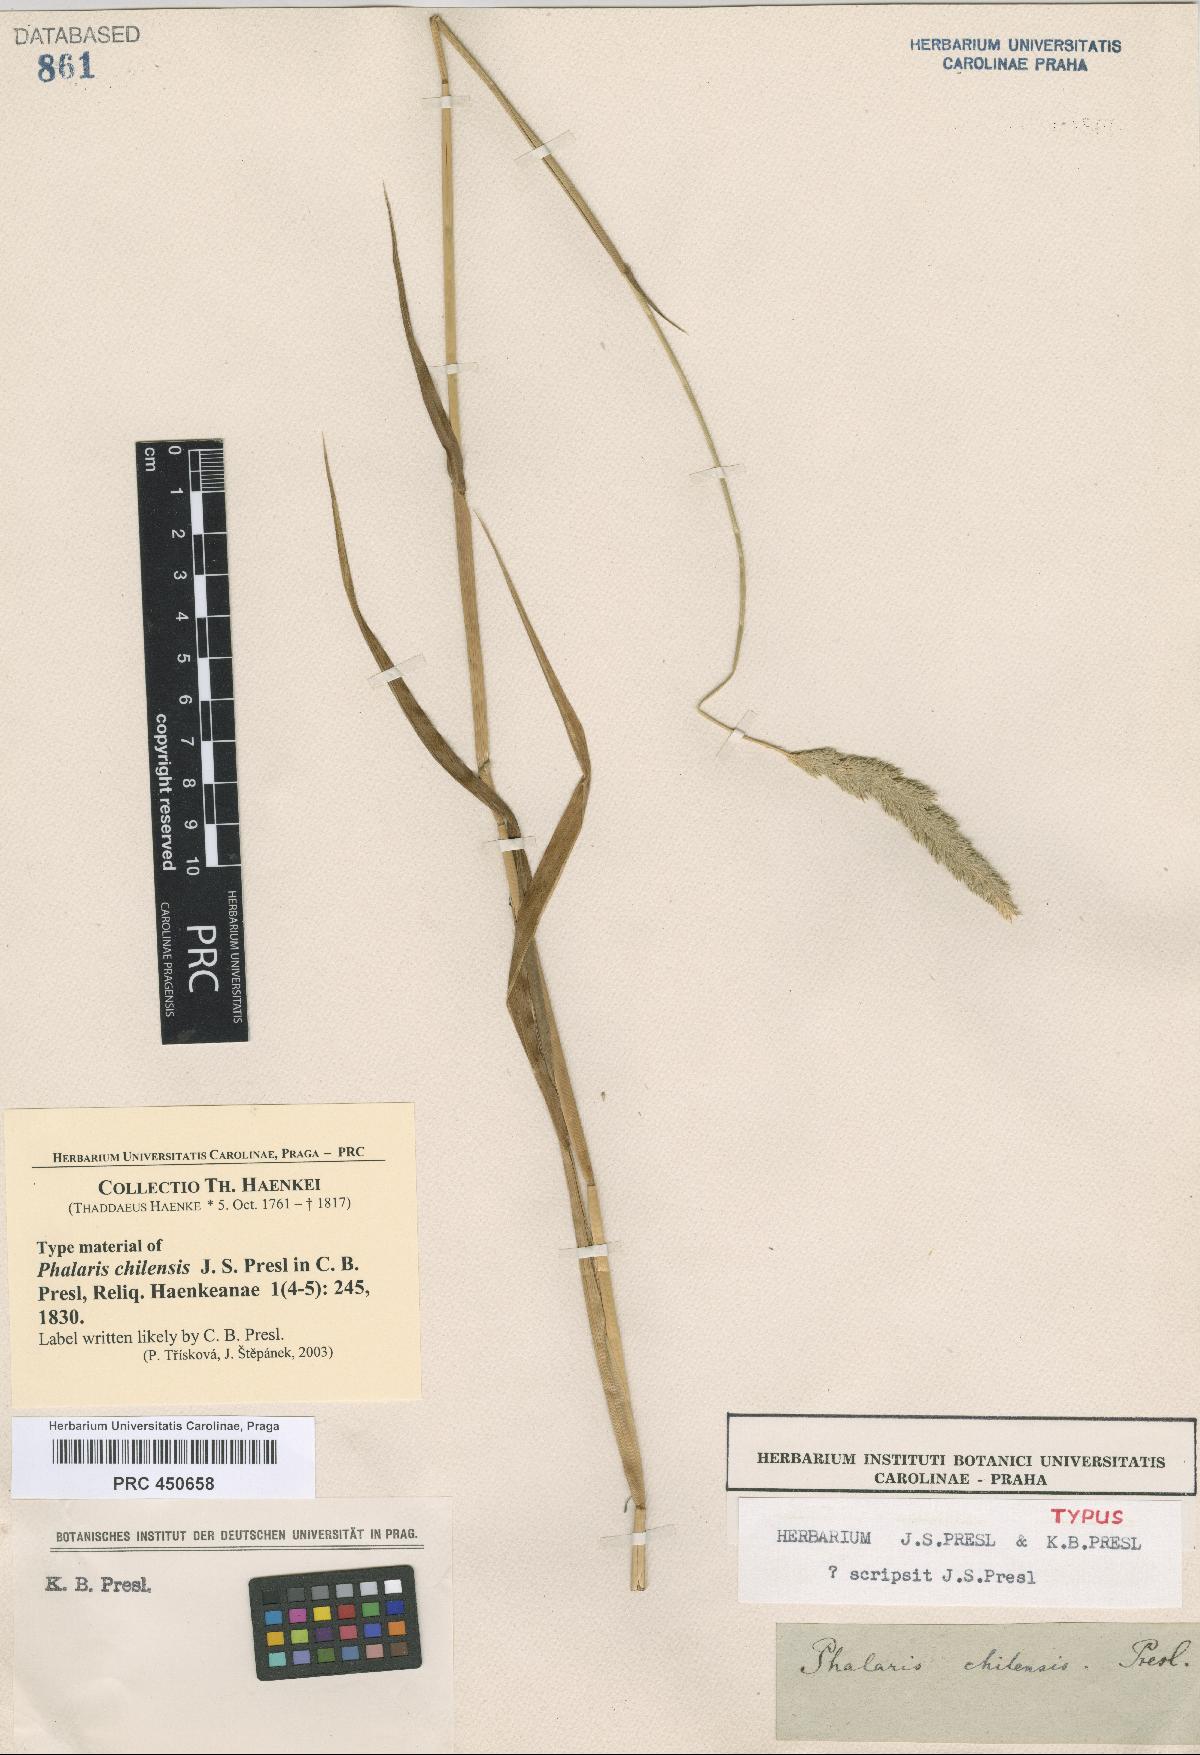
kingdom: Plantae
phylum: Tracheophyta
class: Liliopsida
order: Poales
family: Poaceae
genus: Phalaris
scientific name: Phalaris angusta
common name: Narrow canary grass
